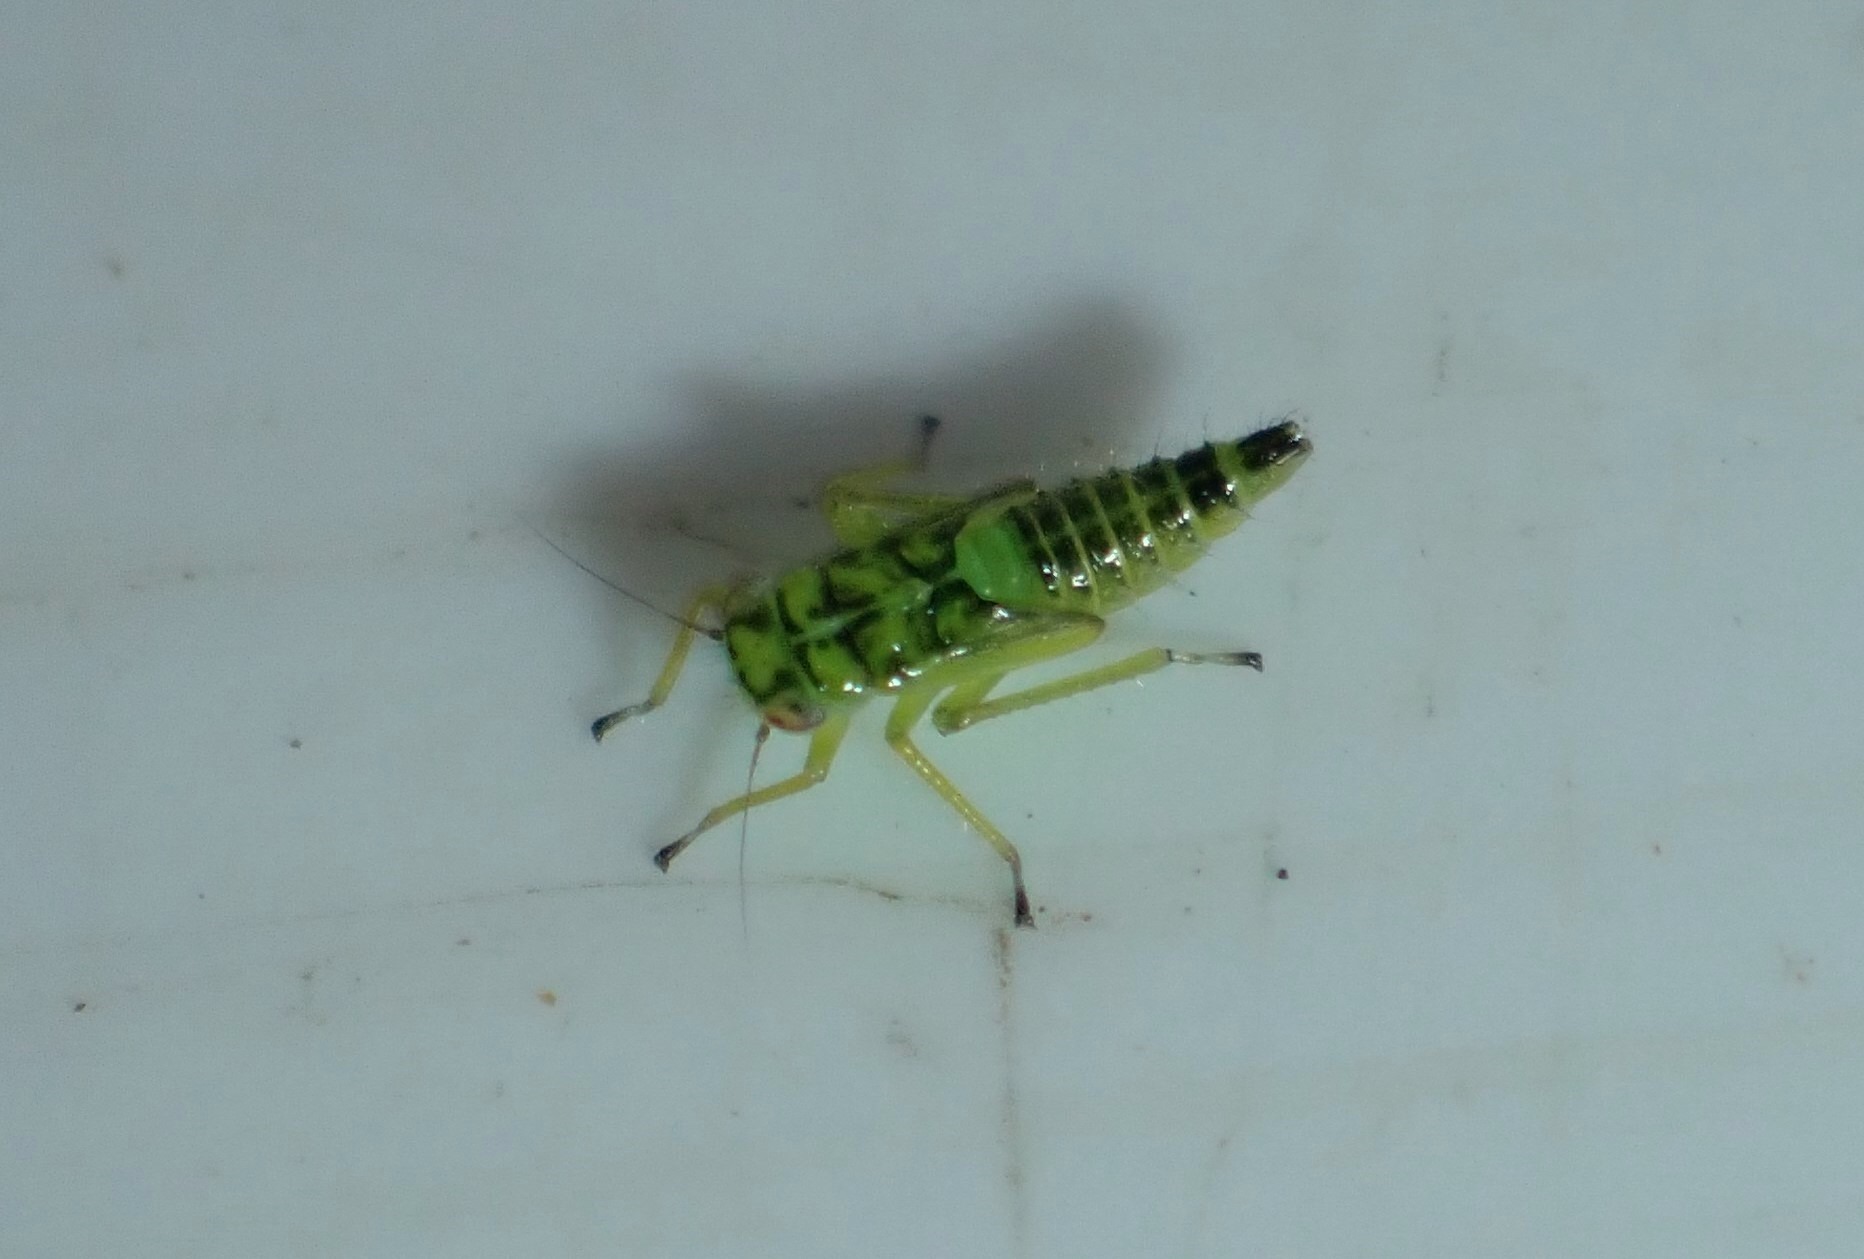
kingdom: Animalia
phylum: Arthropoda
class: Insecta
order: Hemiptera
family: Cicadellidae
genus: Kybos
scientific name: Kybos
